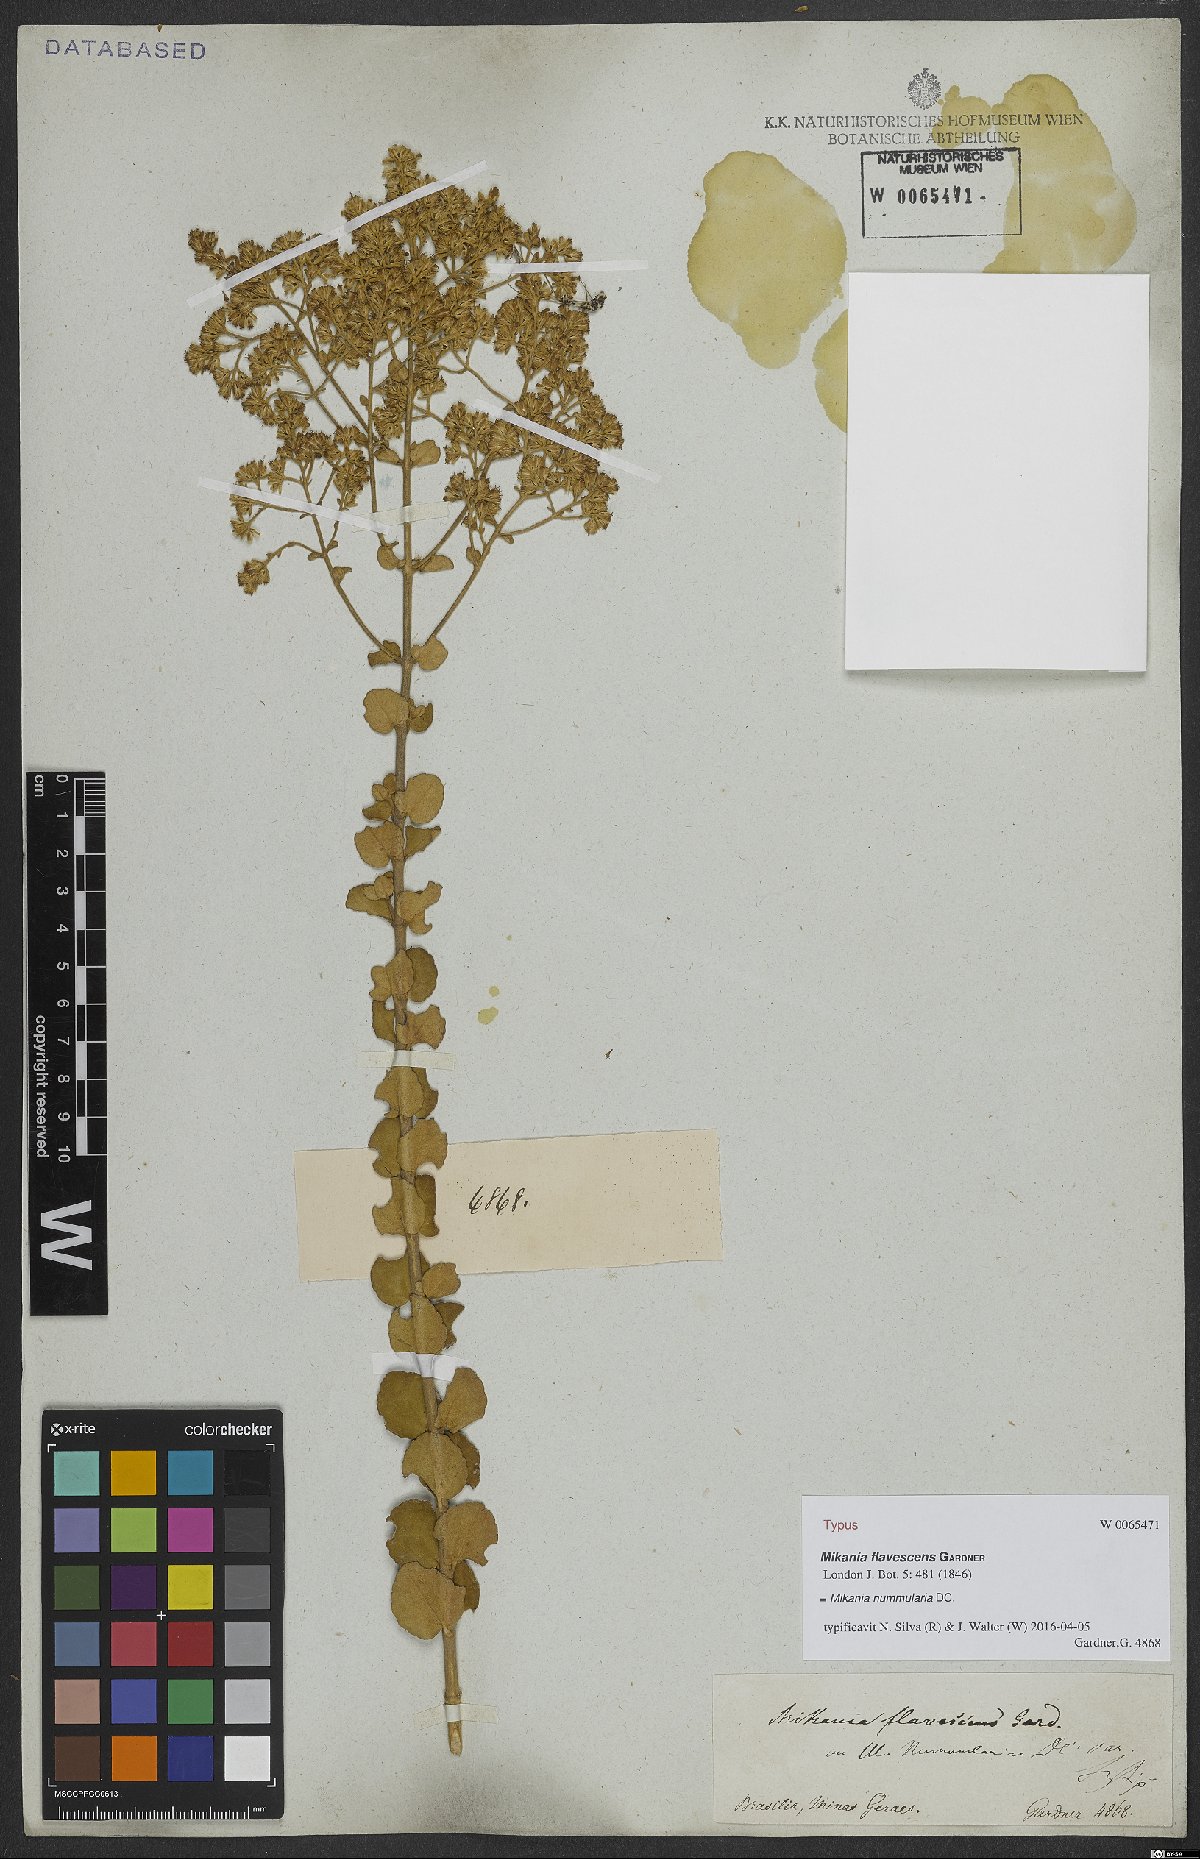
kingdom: Plantae
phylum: Tracheophyta
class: Magnoliopsida
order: Asterales
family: Asteraceae
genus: Mikania
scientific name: Mikania nummularia
